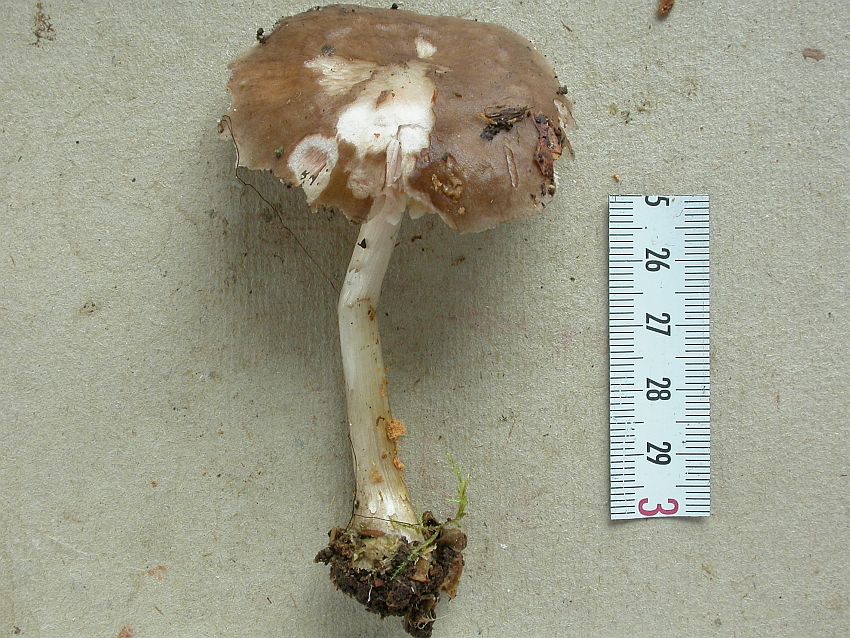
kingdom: Fungi
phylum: Basidiomycota
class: Agaricomycetes
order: Agaricales
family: Pluteaceae
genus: Pluteus
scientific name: Pluteus pouzarianus
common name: plantage-skærmhat
